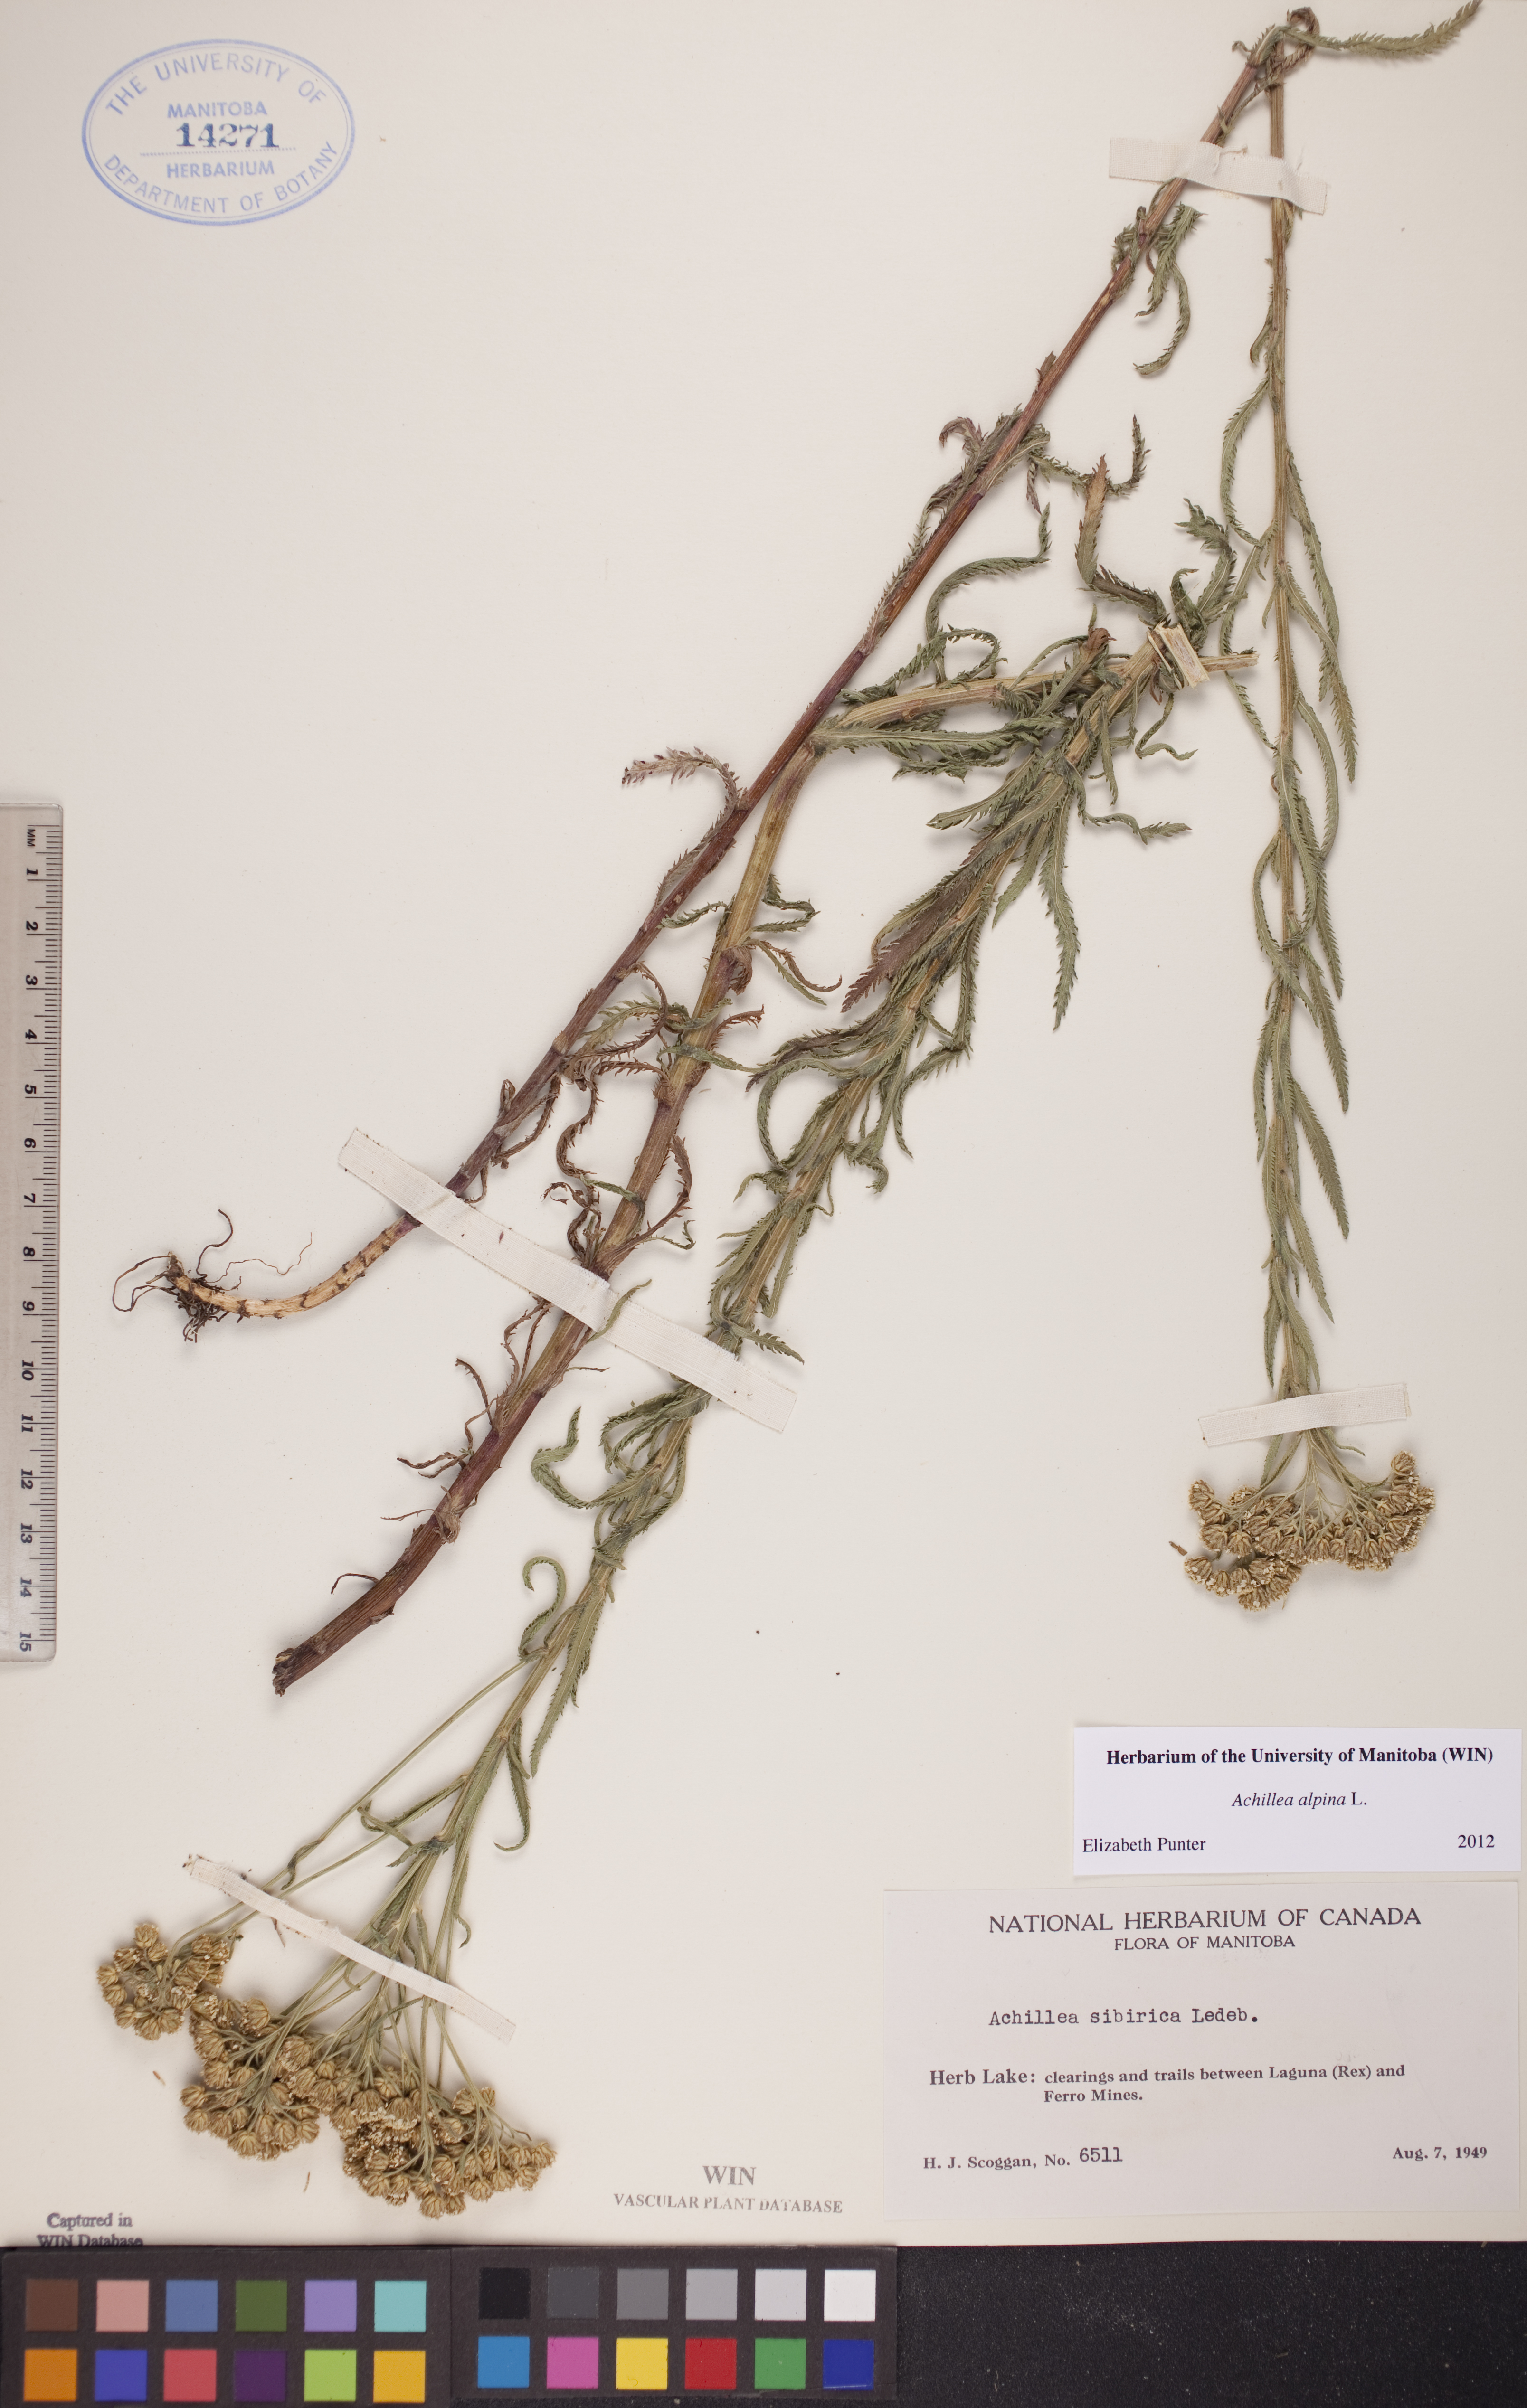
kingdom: Plantae
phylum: Tracheophyta
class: Magnoliopsida
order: Asterales
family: Asteraceae
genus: Achillea
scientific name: Achillea alpina
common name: Siberian yarrow
